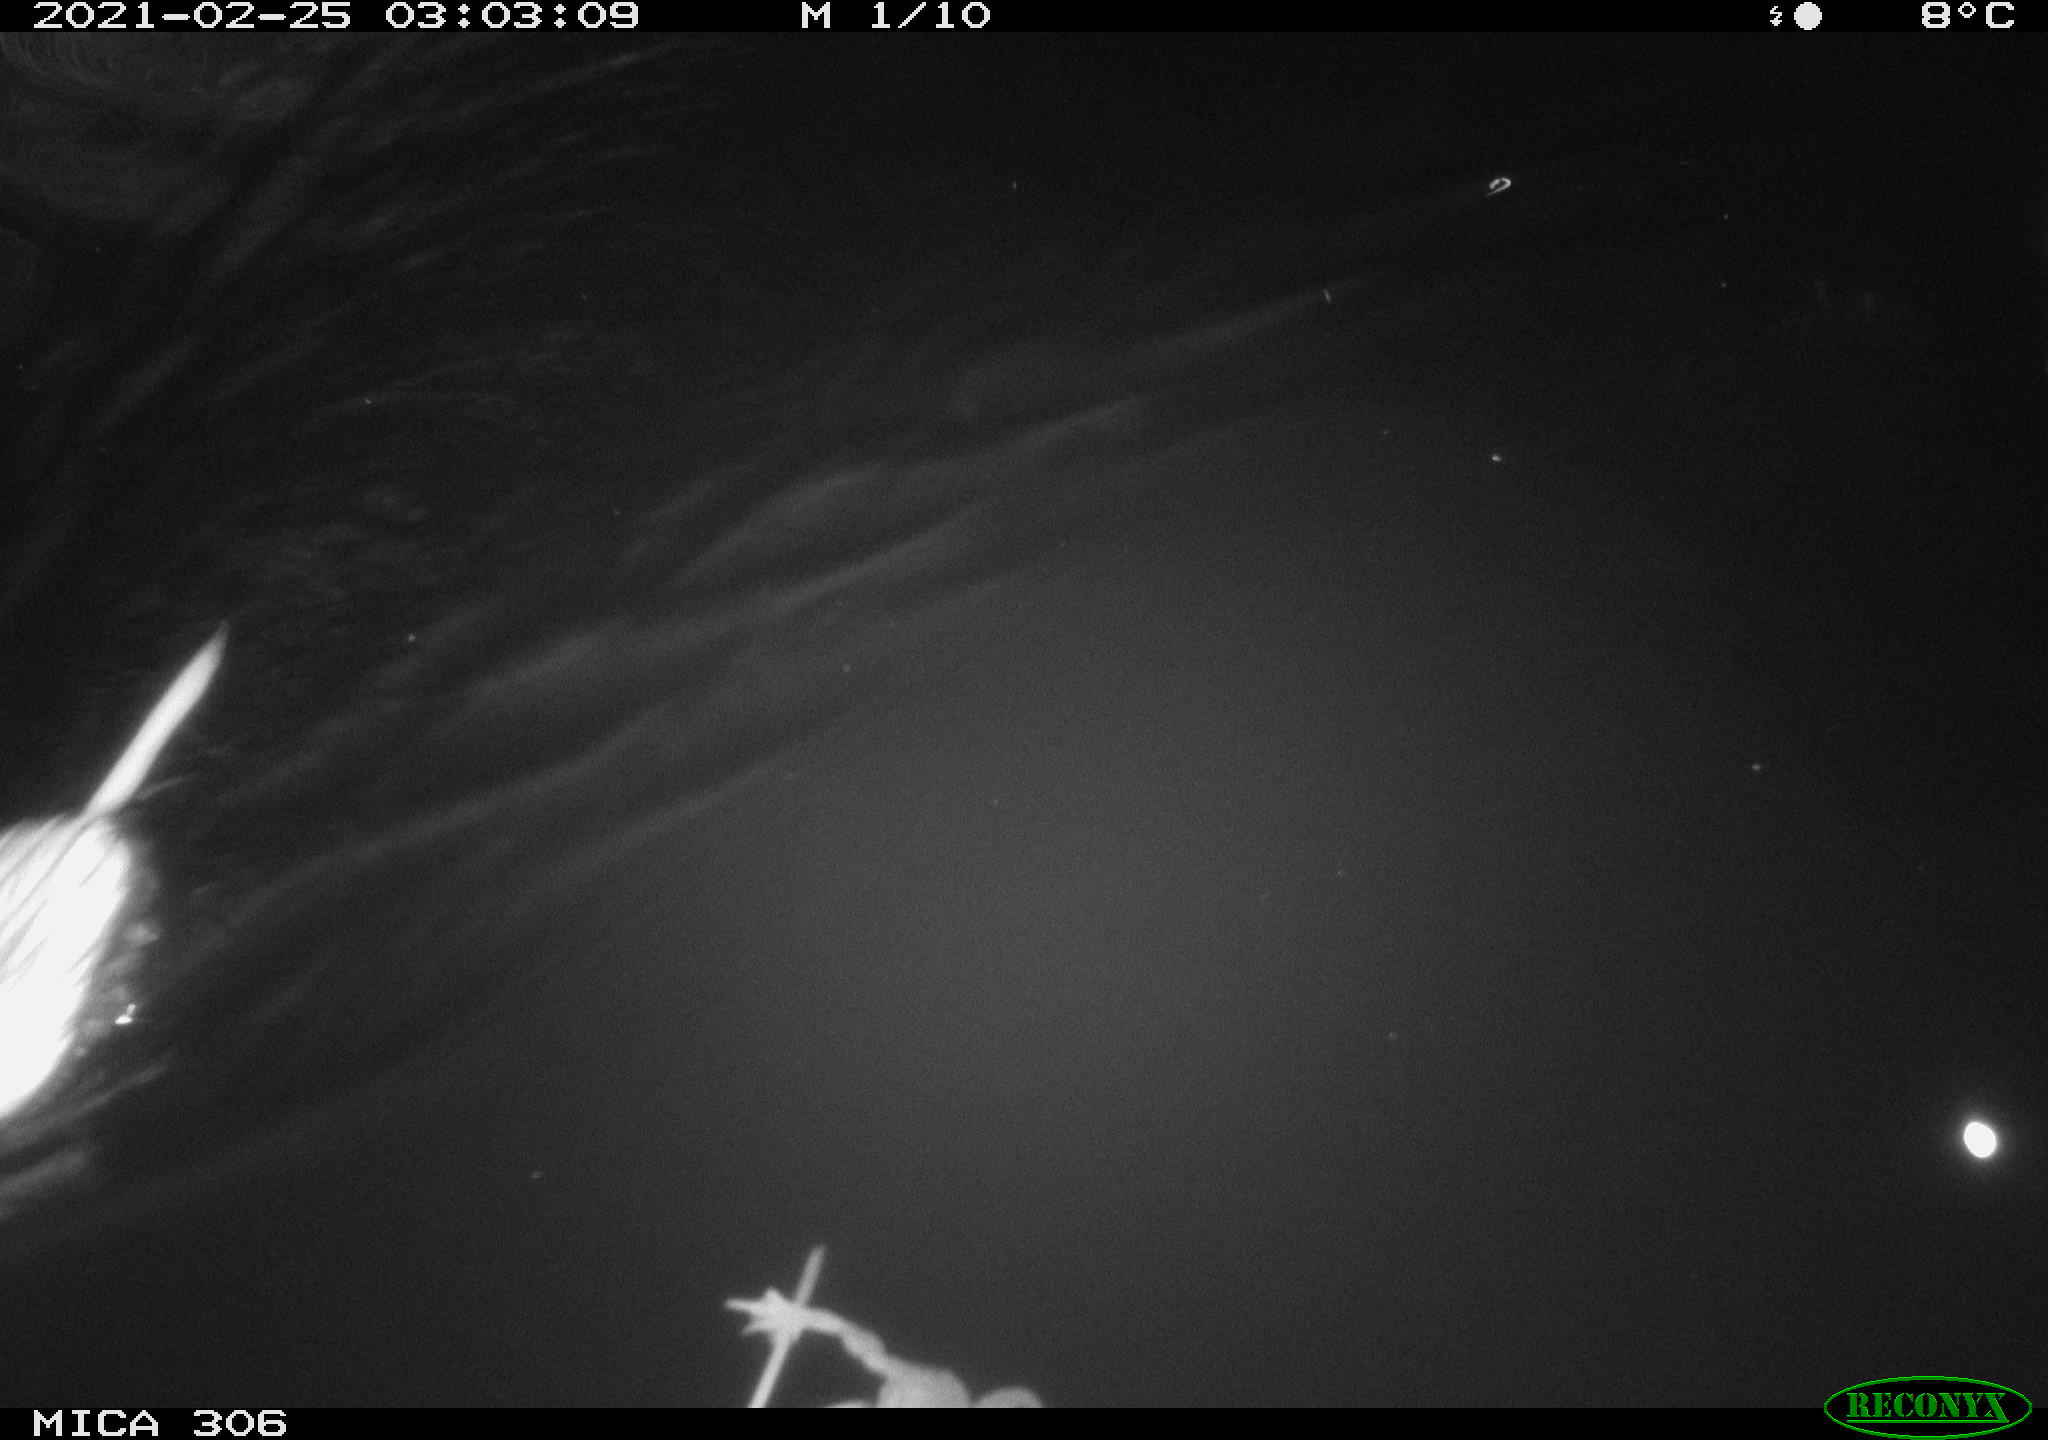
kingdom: Animalia
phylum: Chordata
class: Mammalia
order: Rodentia
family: Cricetidae
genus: Ondatra
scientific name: Ondatra zibethicus
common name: Muskrat
